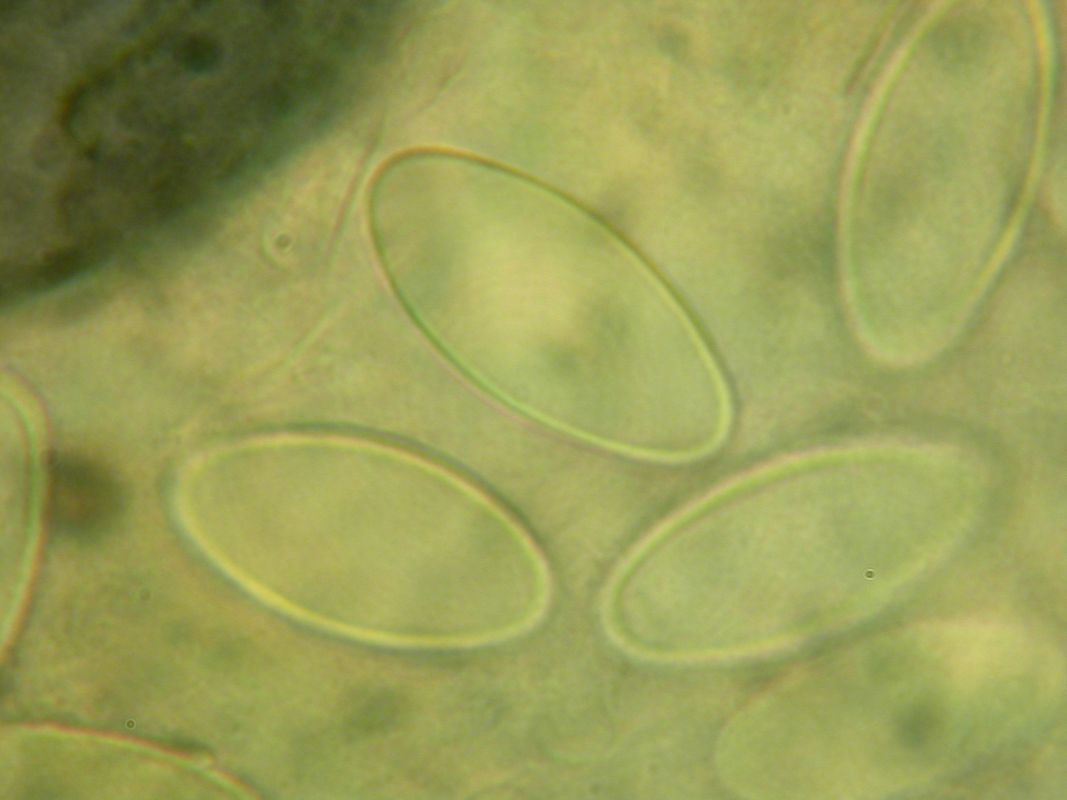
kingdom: Fungi
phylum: Ascomycota
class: Pezizomycetes
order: Pezizales
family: Discinaceae
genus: Gyromitra
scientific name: Gyromitra esculenta
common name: ægte stenmorkel
